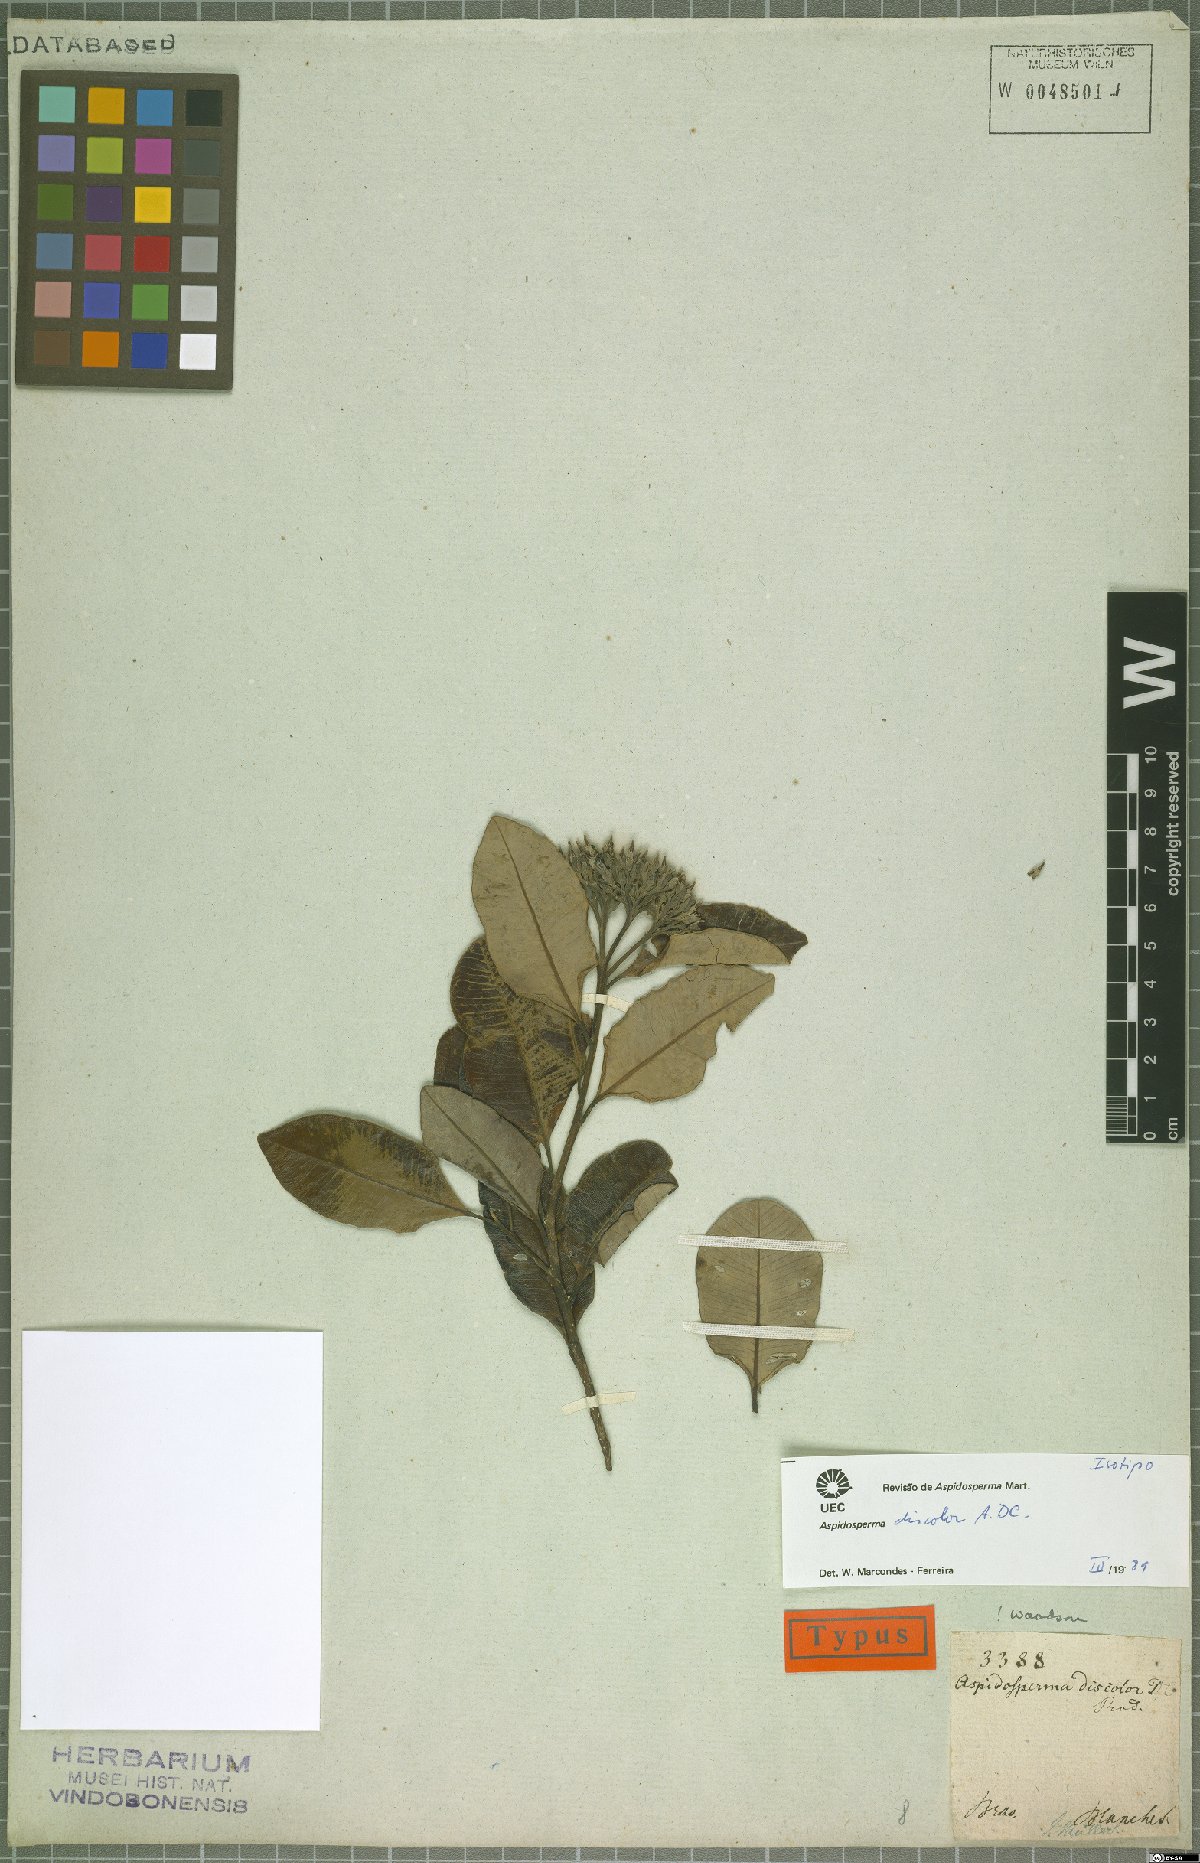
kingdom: Plantae
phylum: Tracheophyta
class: Magnoliopsida
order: Gentianales
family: Apocynaceae
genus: Aspidosperma
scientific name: Aspidosperma discolor
